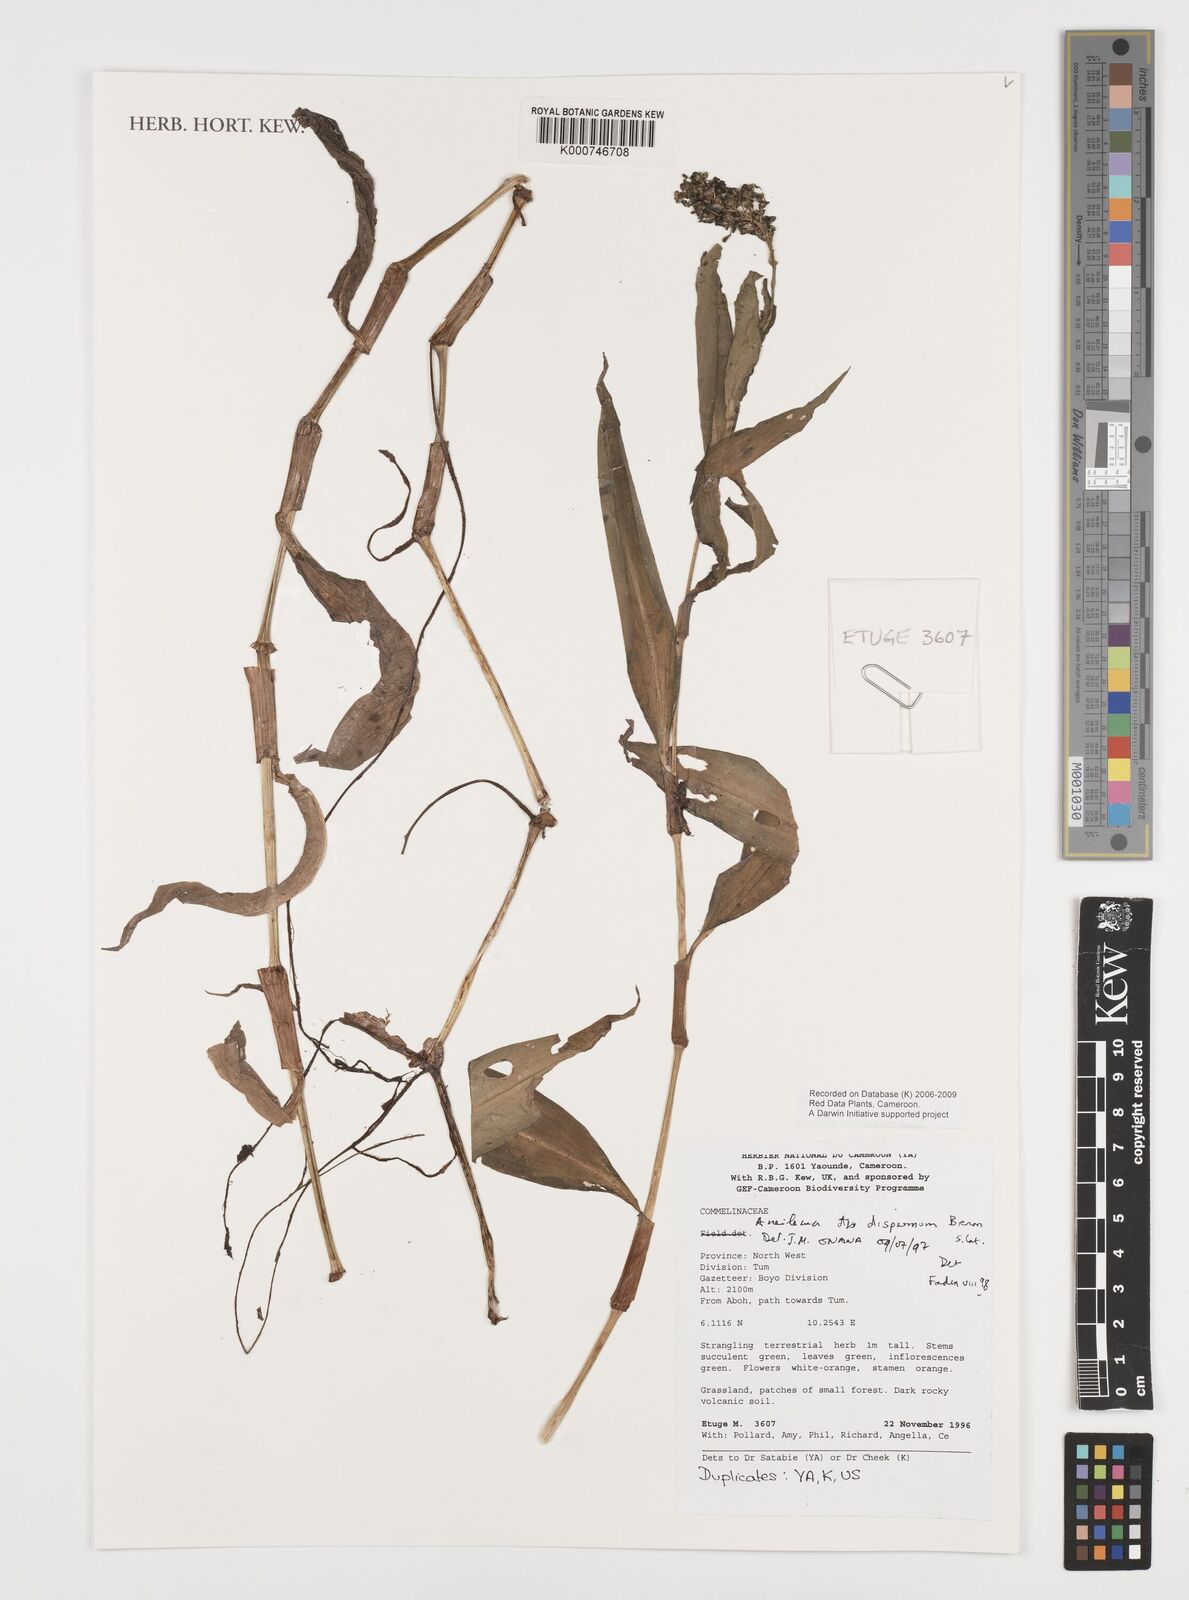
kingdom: Plantae
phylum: Tracheophyta
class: Liliopsida
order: Commelinales
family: Commelinaceae
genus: Aneilema
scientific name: Aneilema dispermum
